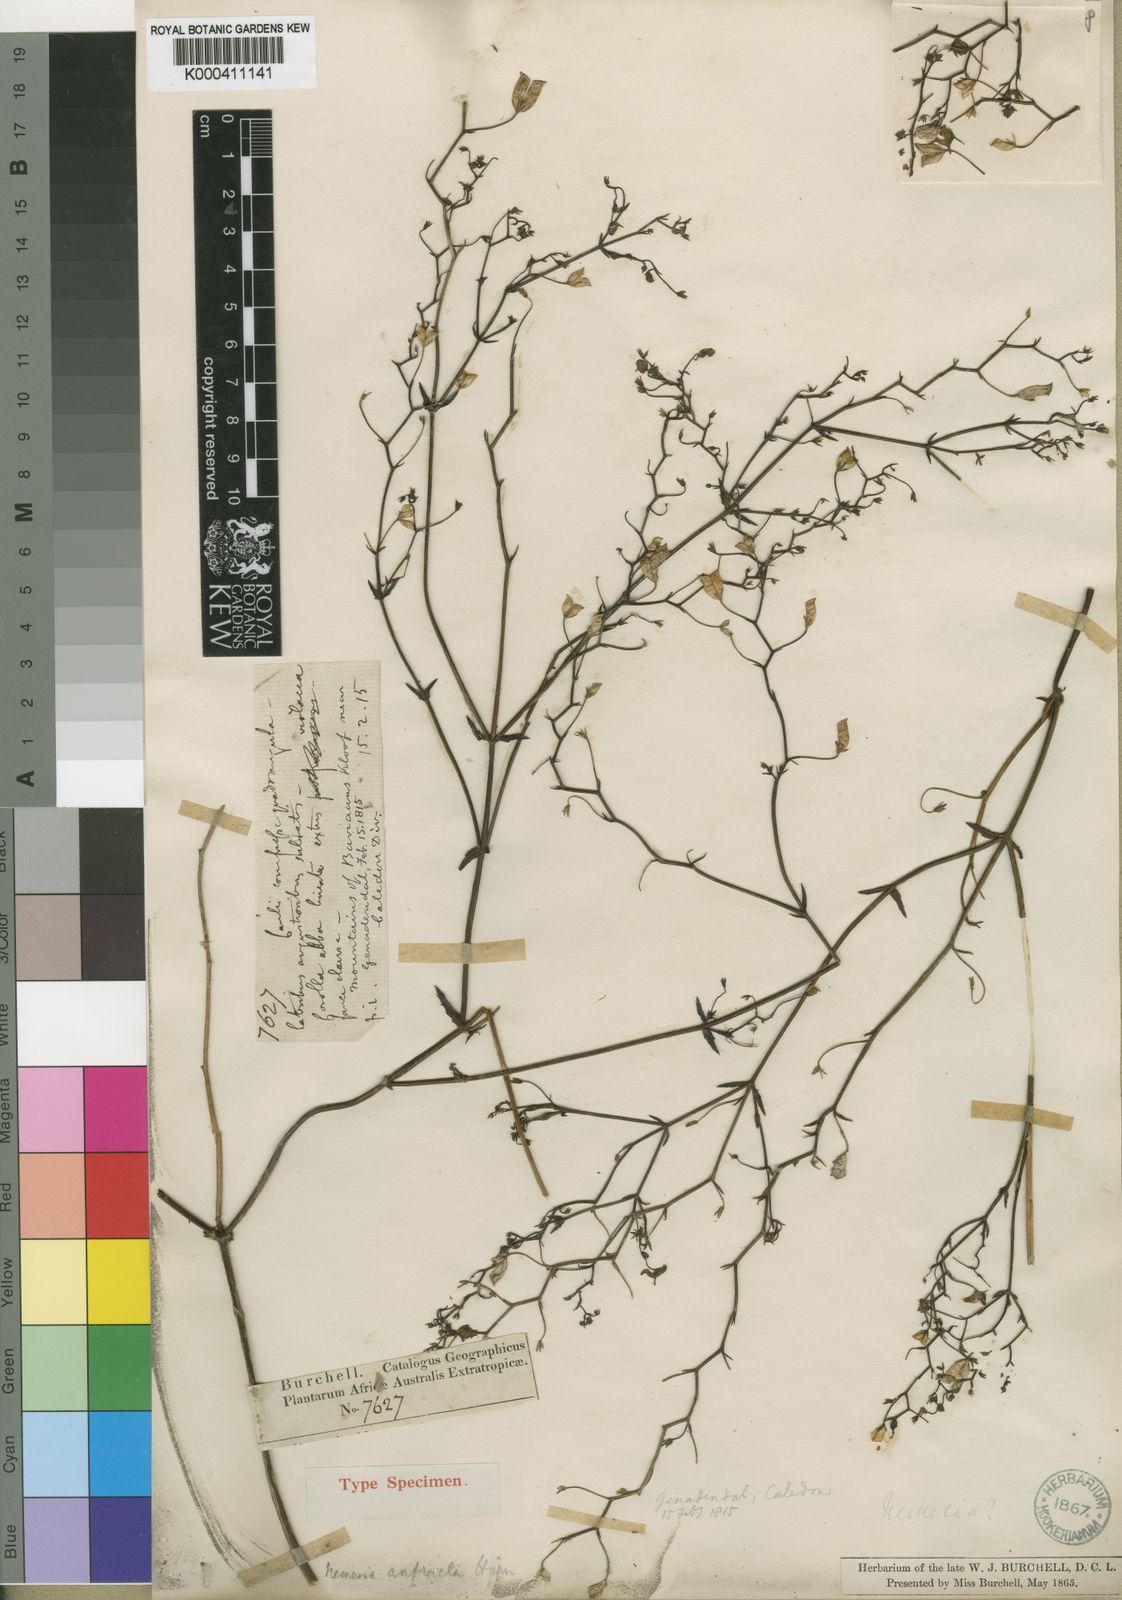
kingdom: Plantae
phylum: Tracheophyta
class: Magnoliopsida
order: Lamiales
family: Scrophulariaceae
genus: Nemesia
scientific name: Nemesia anfracta
